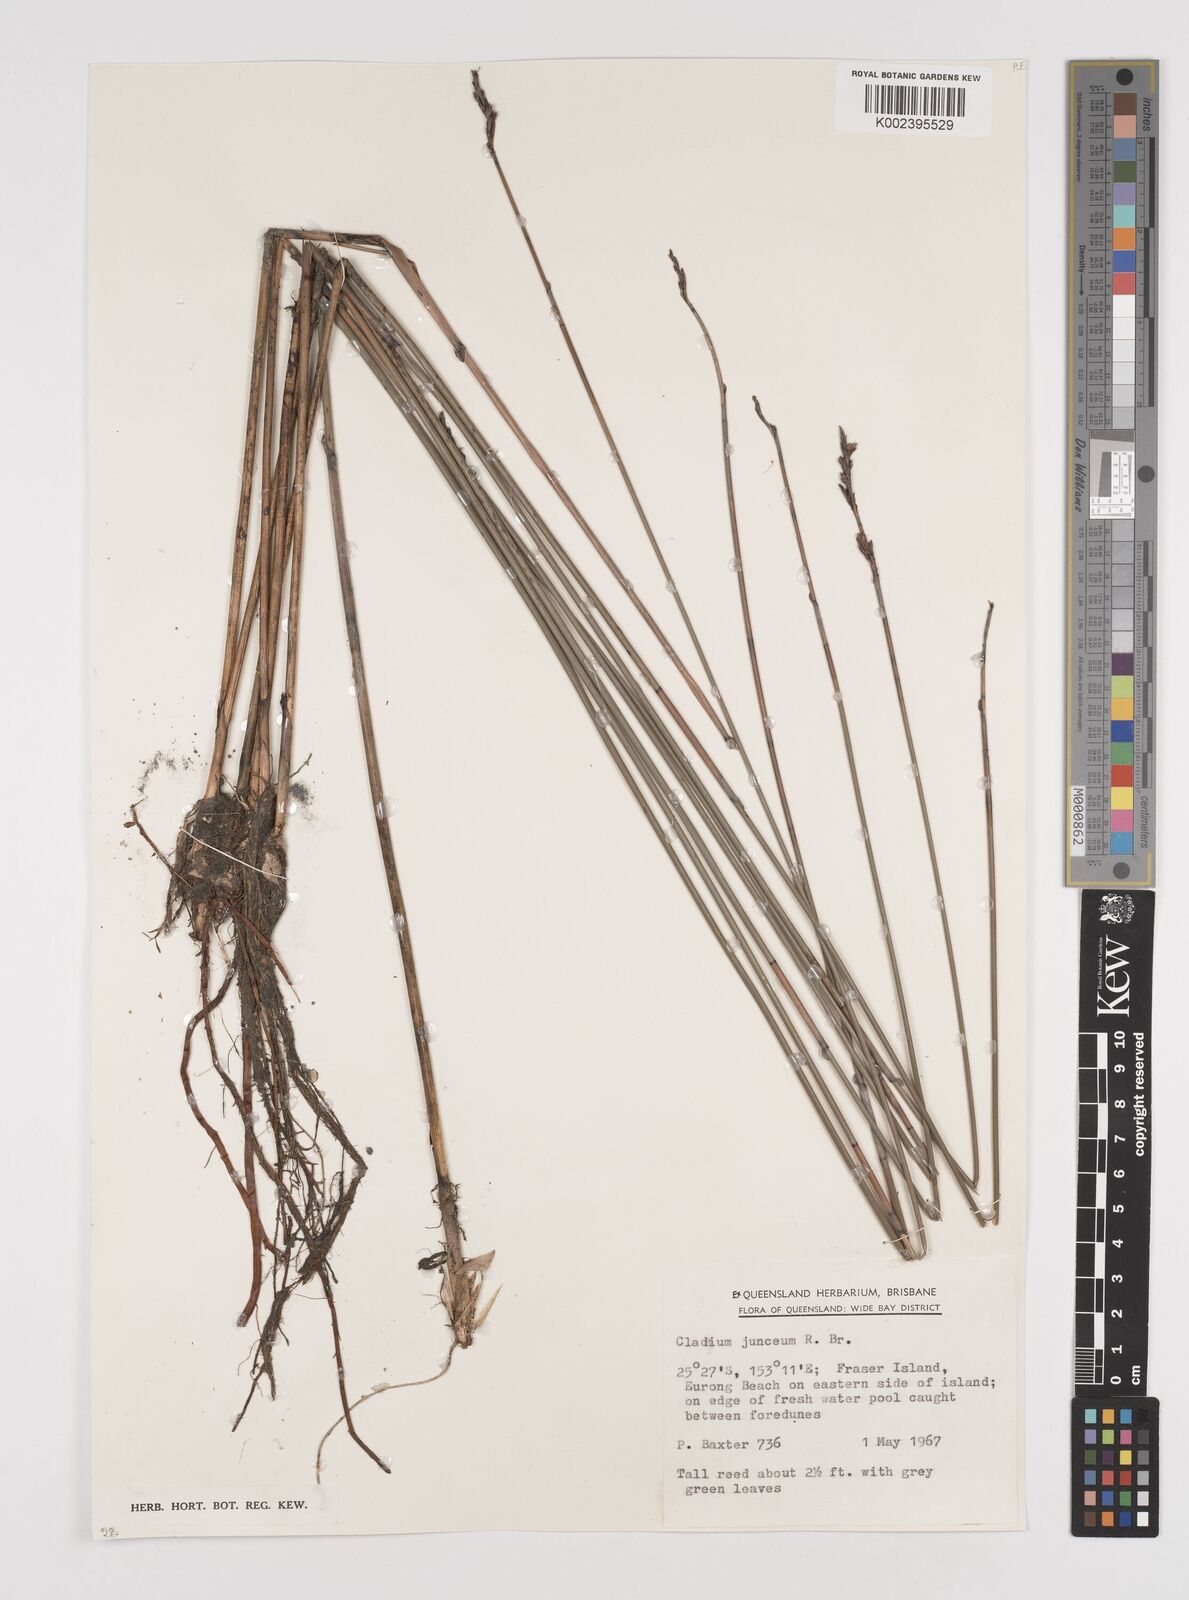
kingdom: Plantae
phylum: Tracheophyta
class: Liliopsida
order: Poales
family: Cyperaceae
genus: Machaerina
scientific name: Machaerina juncea
